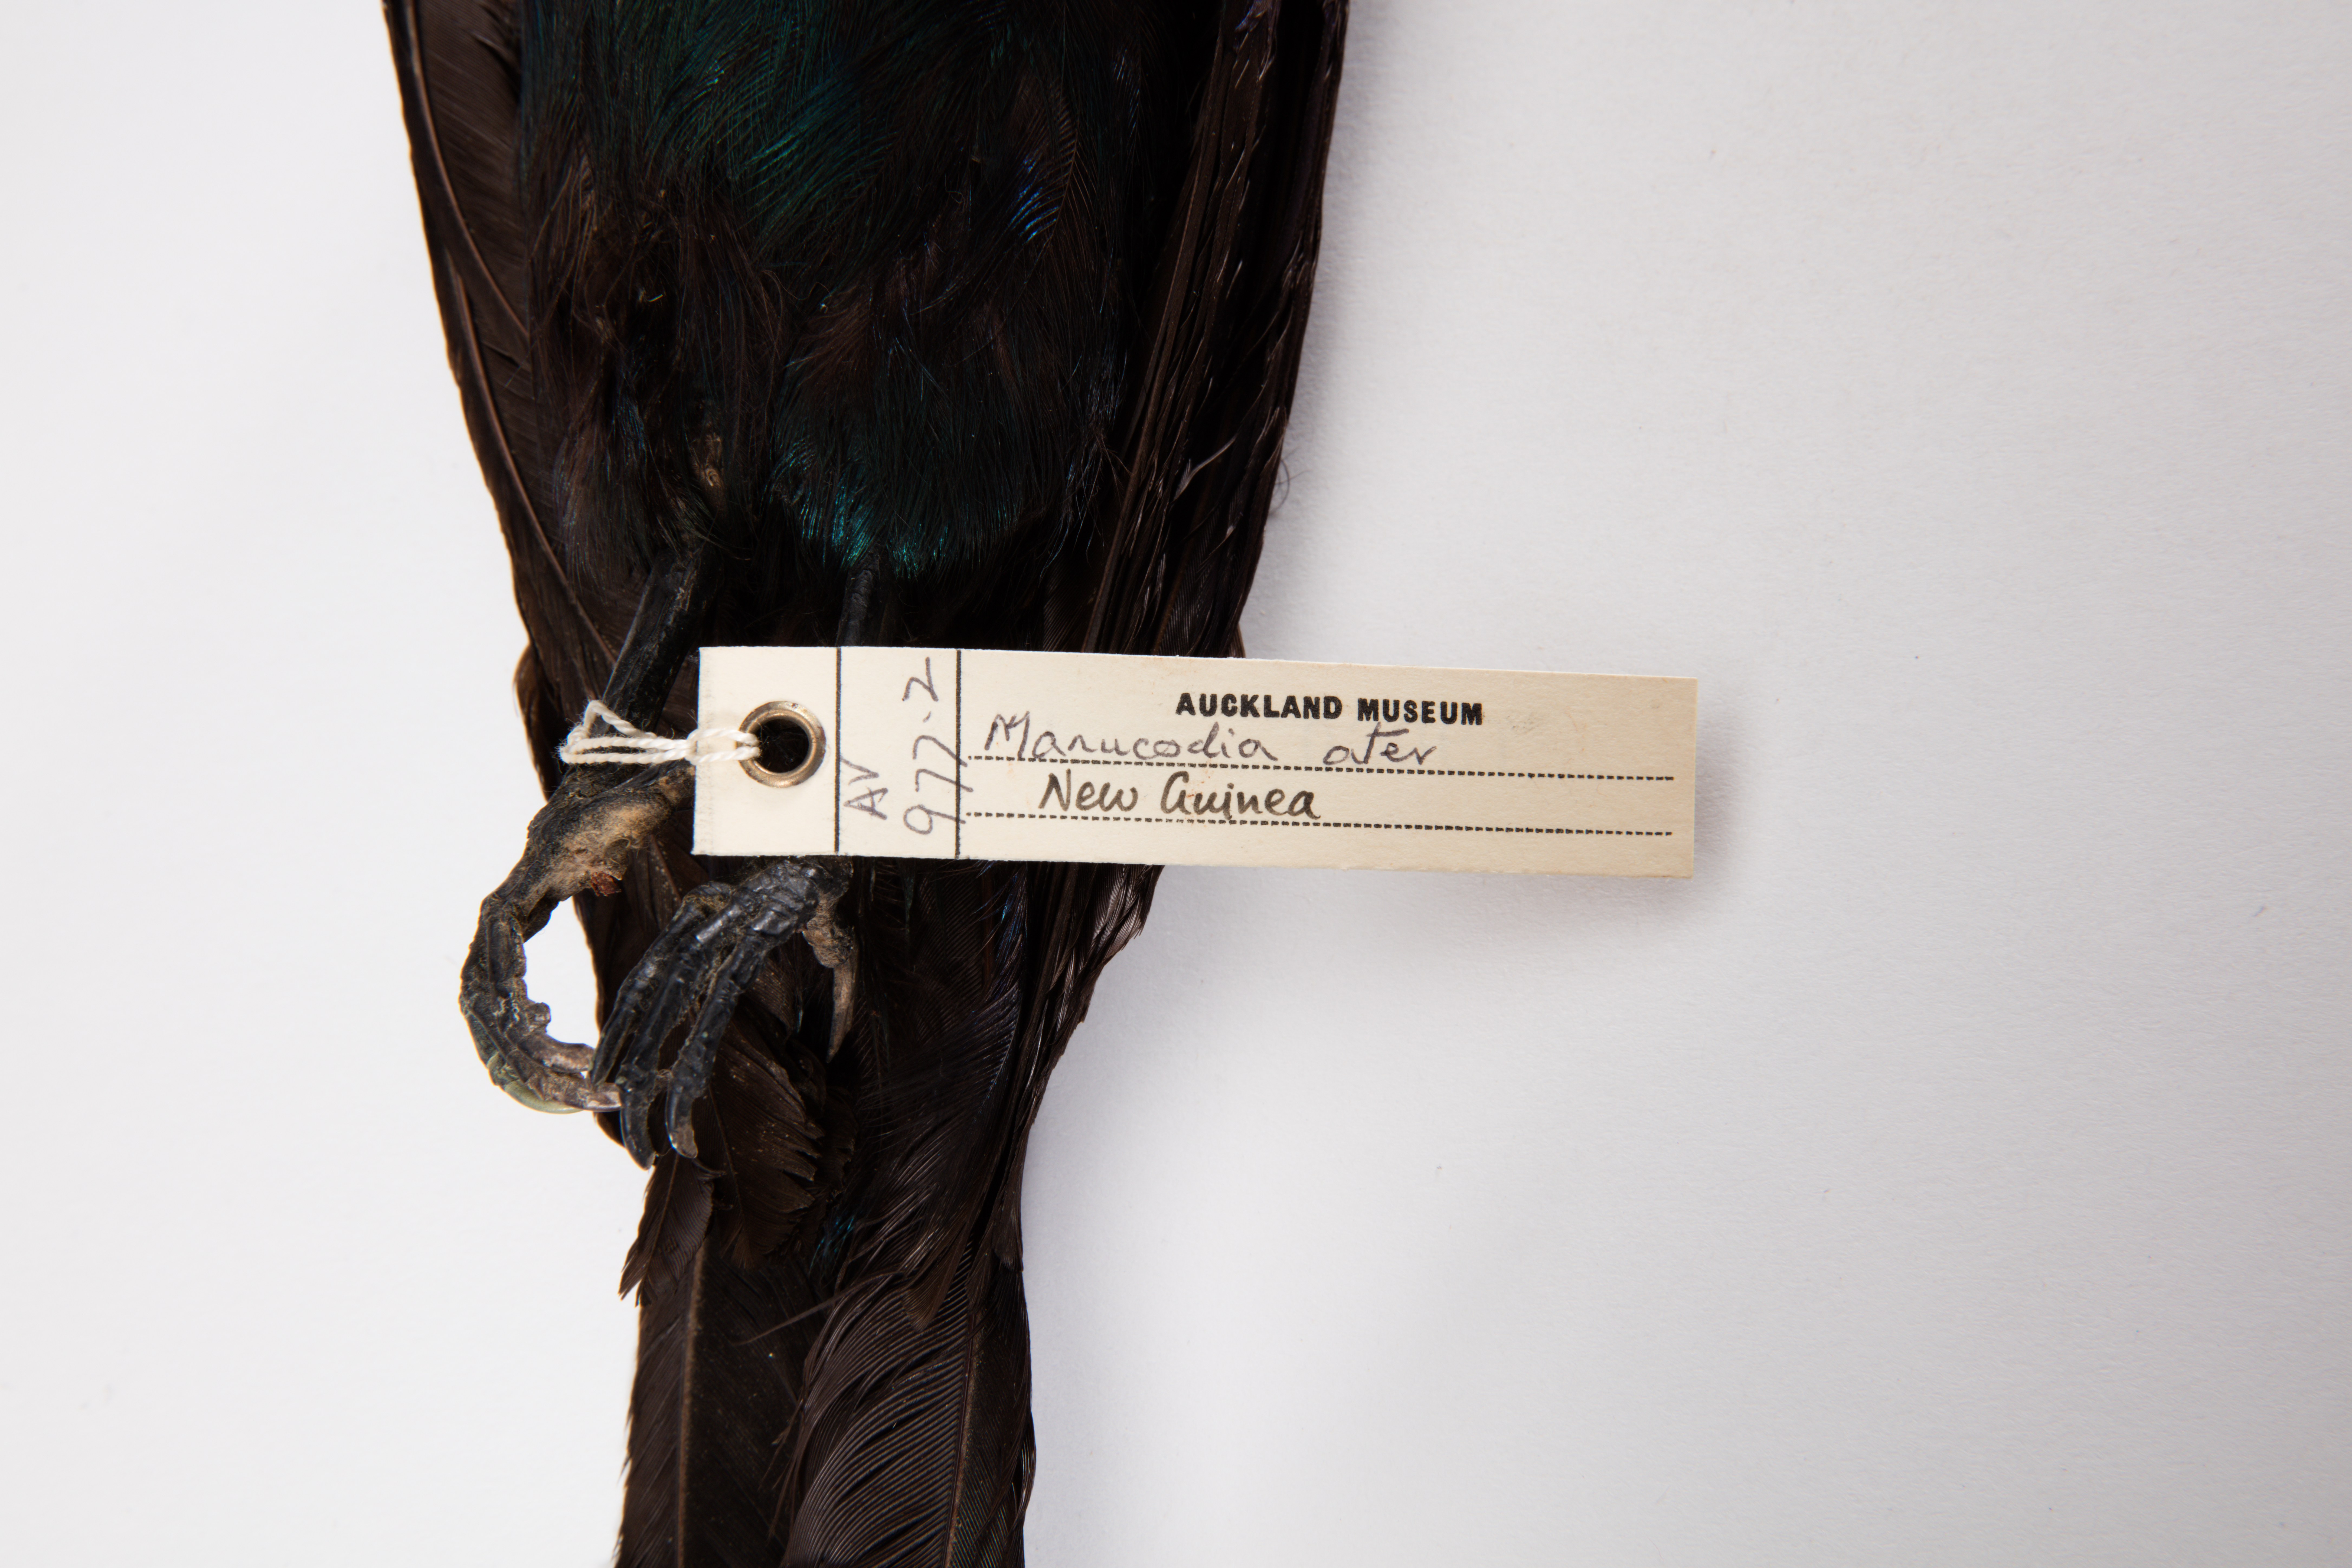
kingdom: Animalia
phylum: Chordata
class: Aves
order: Passeriformes
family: Paradisaeidae
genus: Manucodia
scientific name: Manucodia ater
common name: Glossy-mantled manucode
